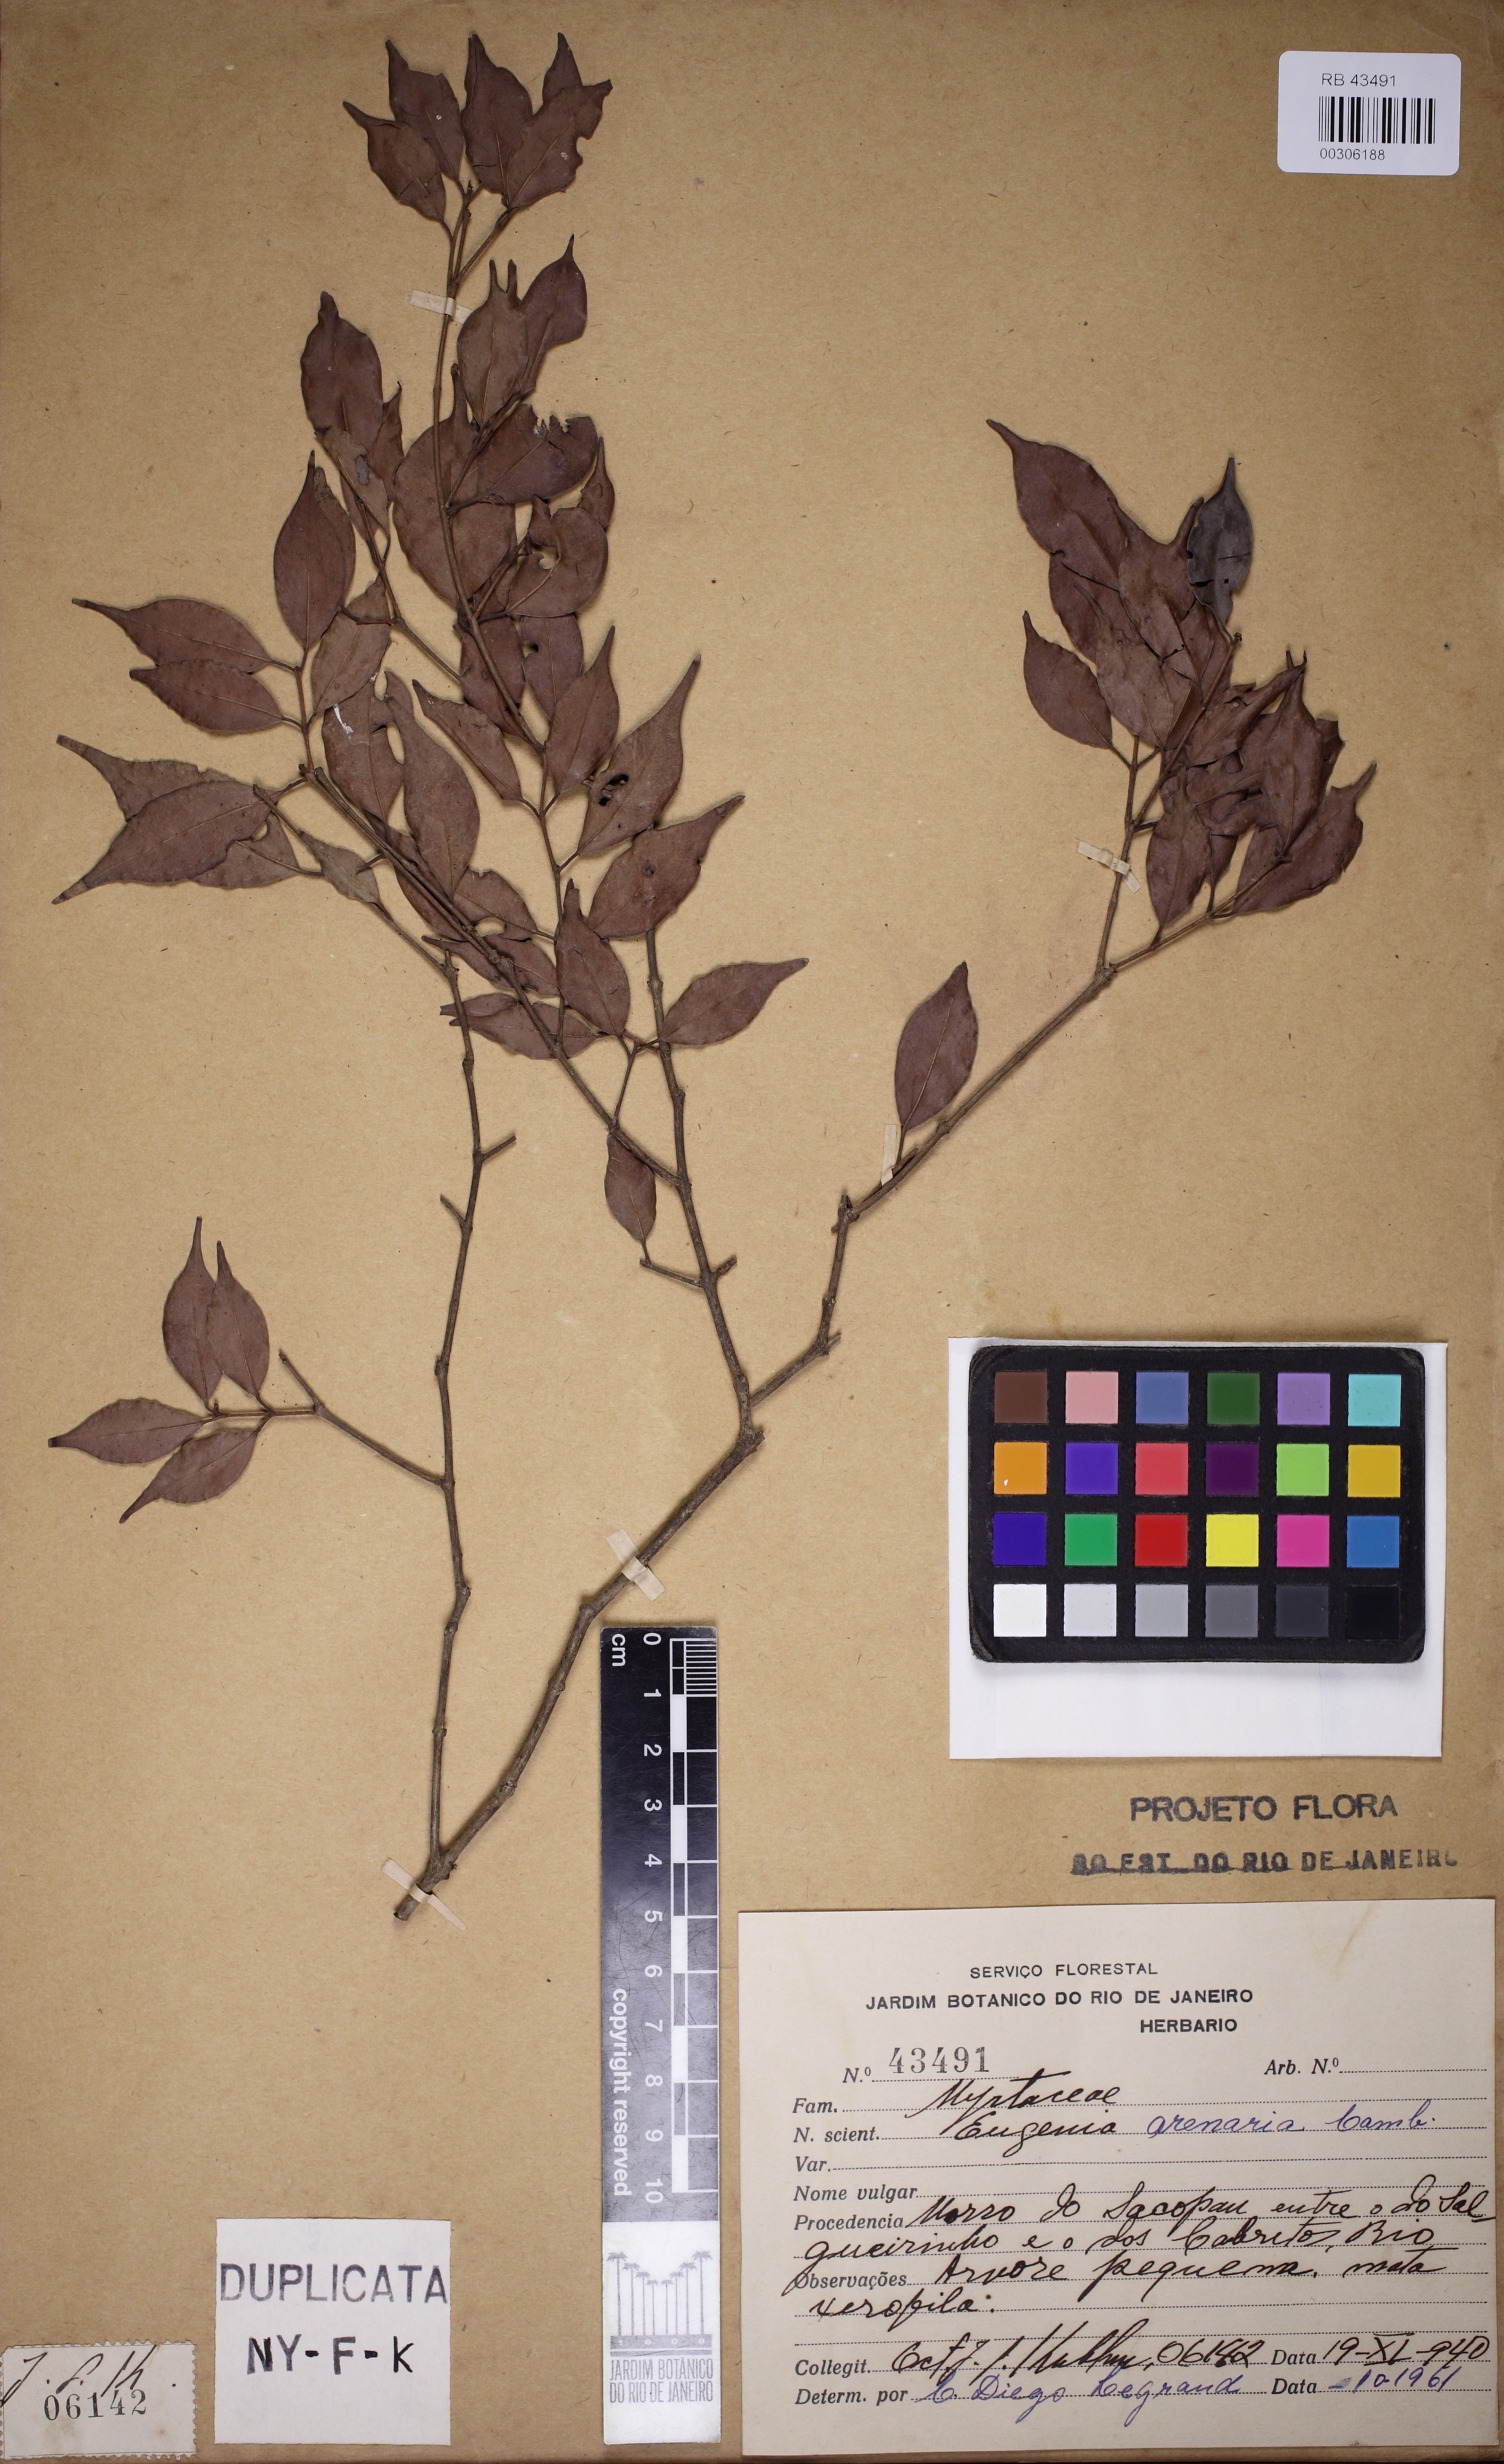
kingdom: Plantae
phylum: Tracheophyta
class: Magnoliopsida
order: Myrtales
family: Myrtaceae
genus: Eugenia
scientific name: Eugenia arenaria
